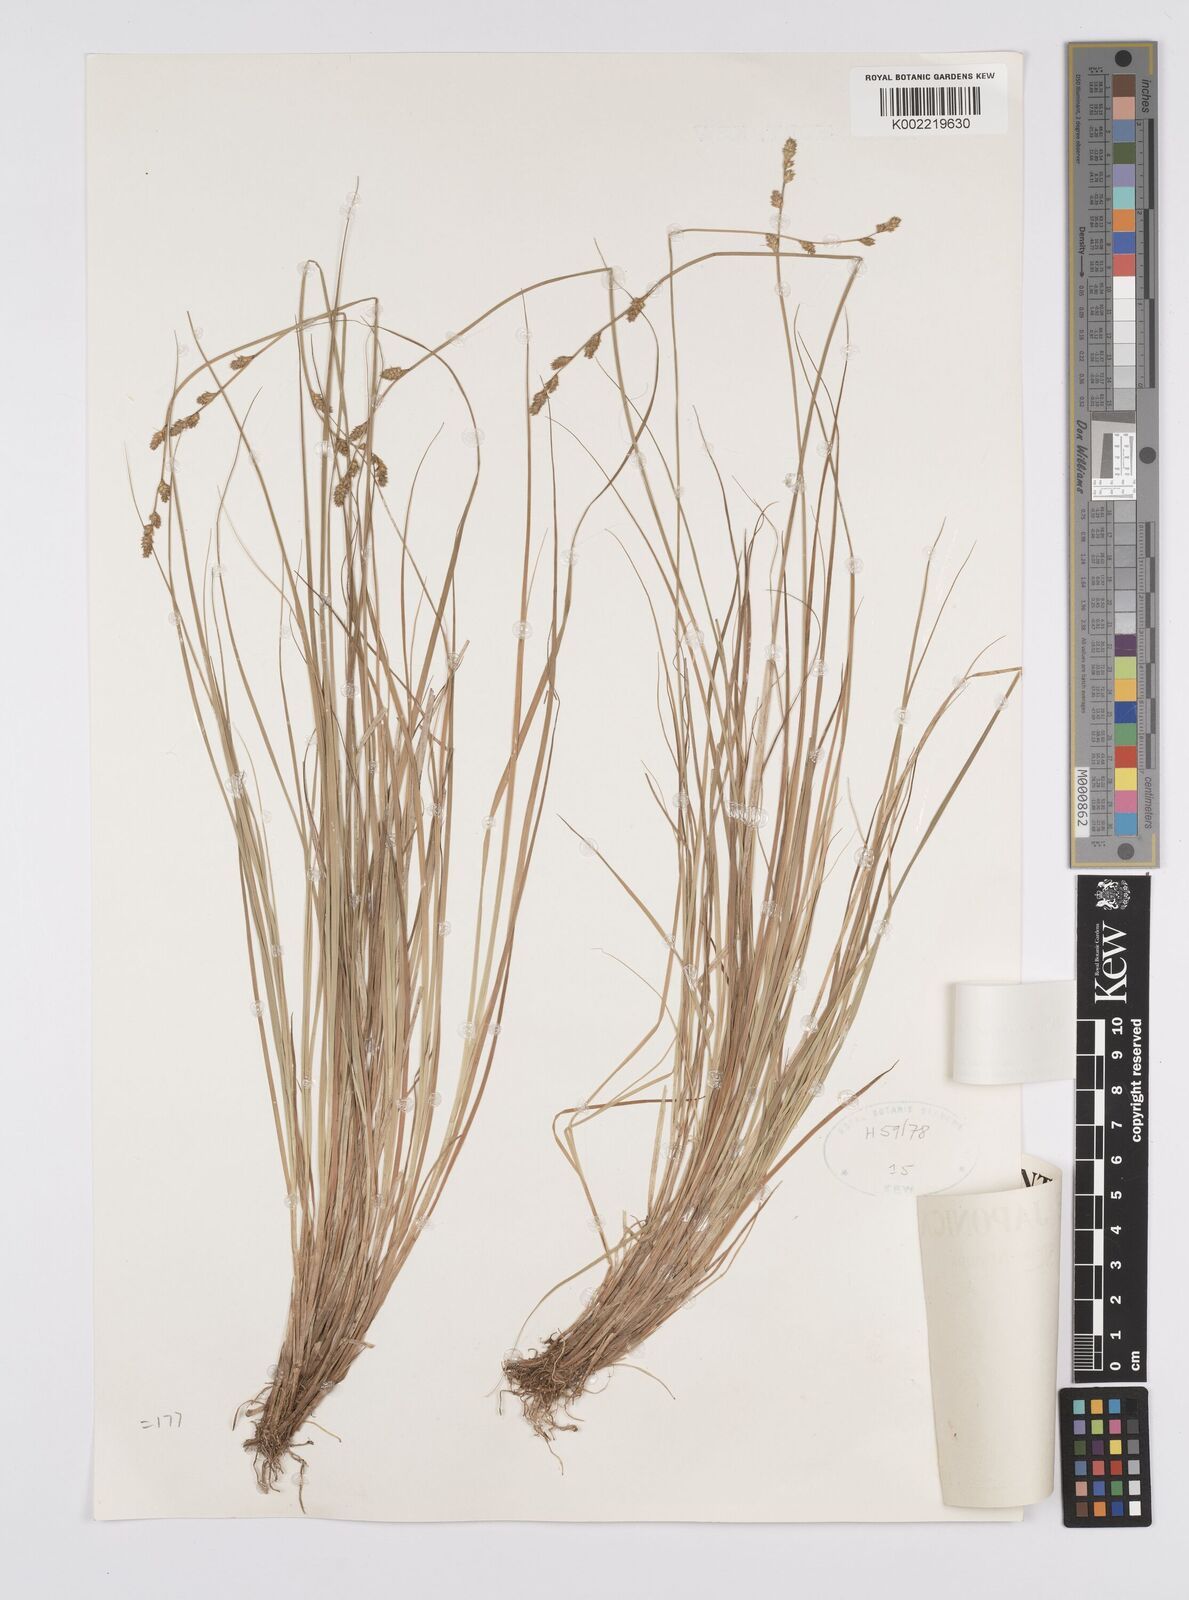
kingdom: Plantae
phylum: Tracheophyta
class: Liliopsida
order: Poales
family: Cyperaceae
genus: Carex
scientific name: Carex canescens
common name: White sedge
